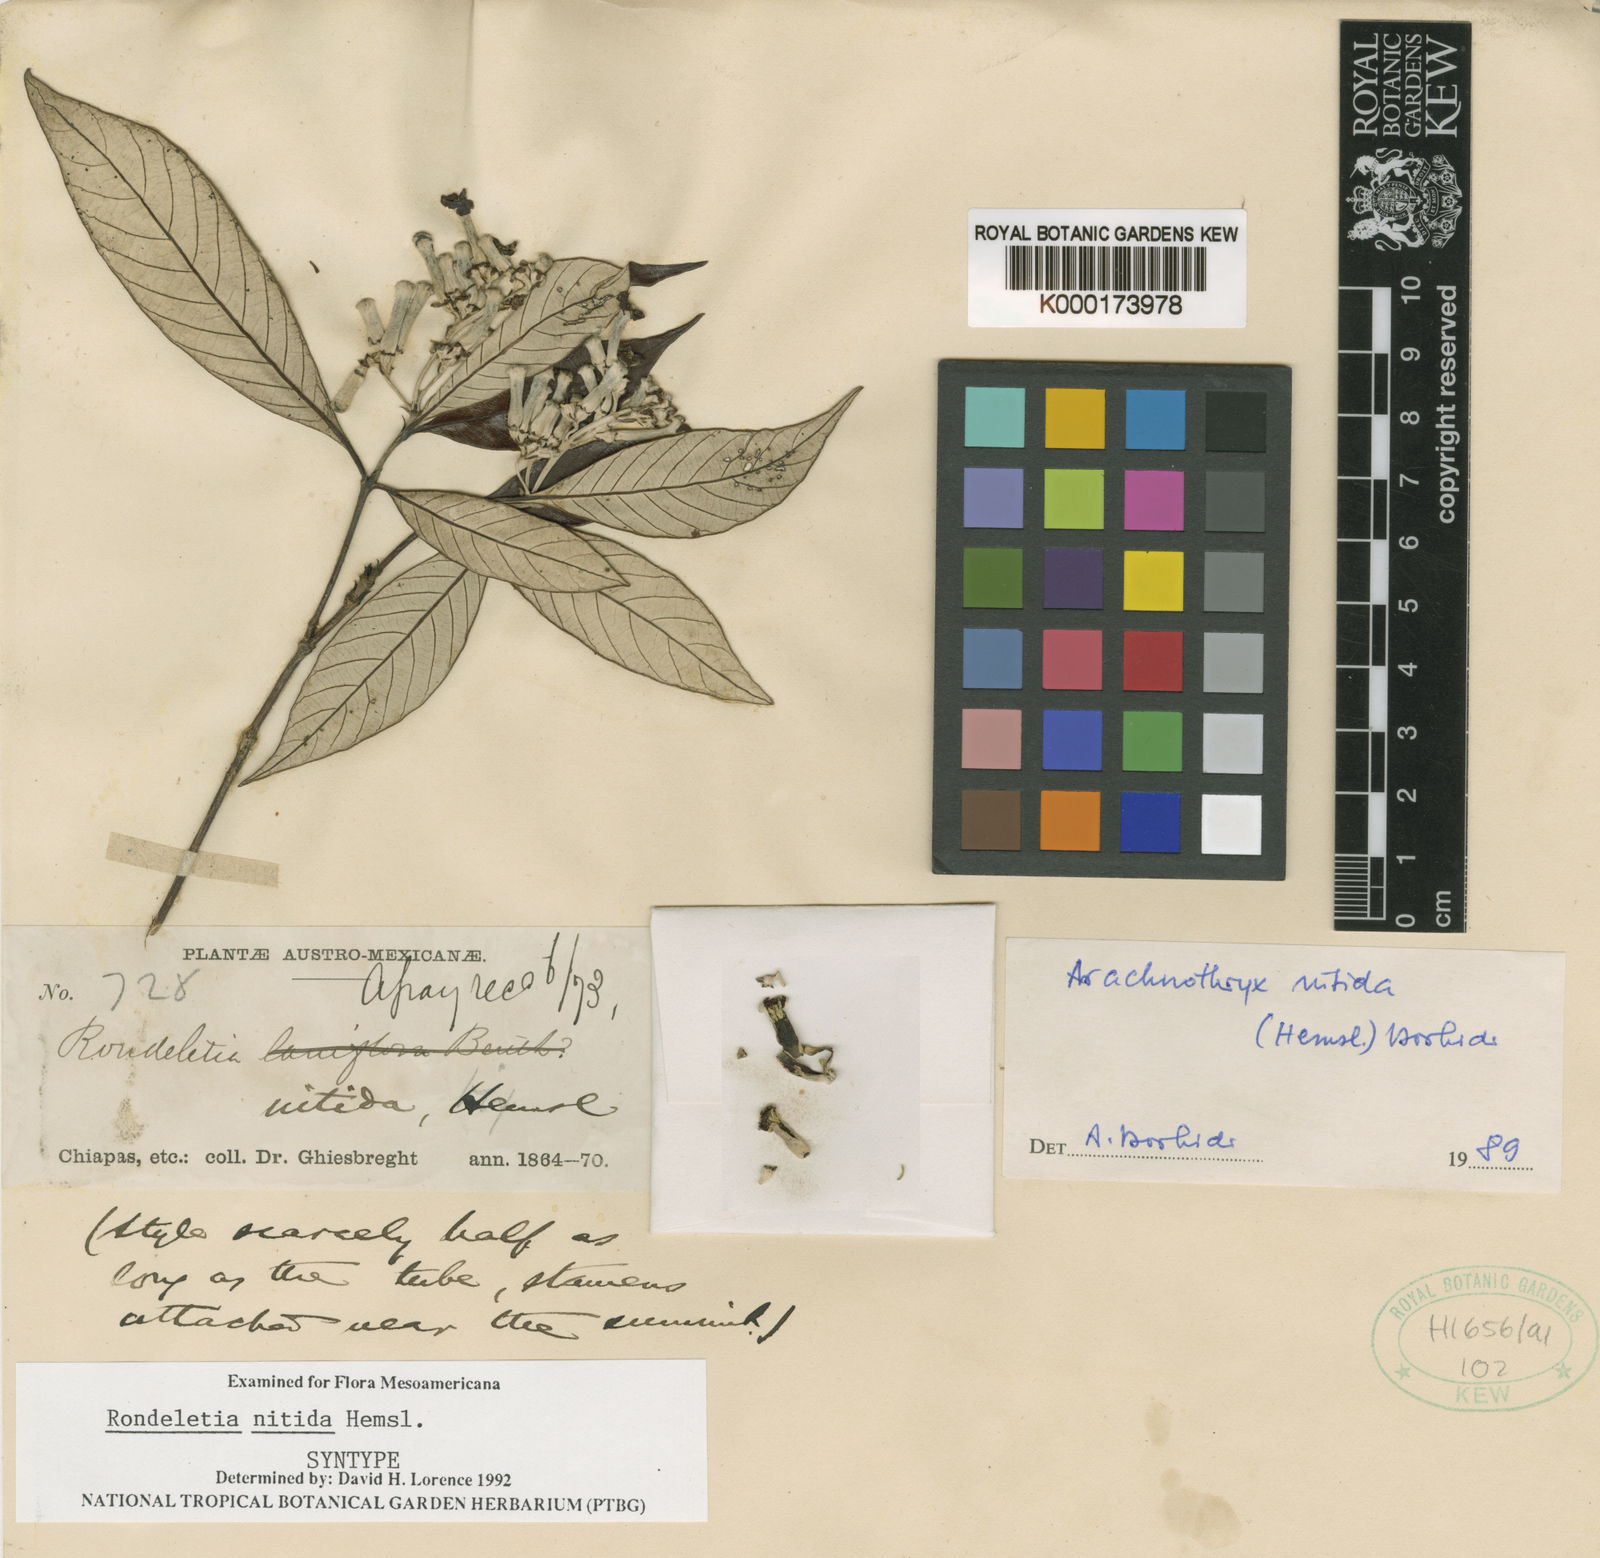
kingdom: Plantae
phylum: Tracheophyta
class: Magnoliopsida
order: Gentianales
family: Rubiaceae
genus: Arachnothryx
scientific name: Arachnothryx nitida
